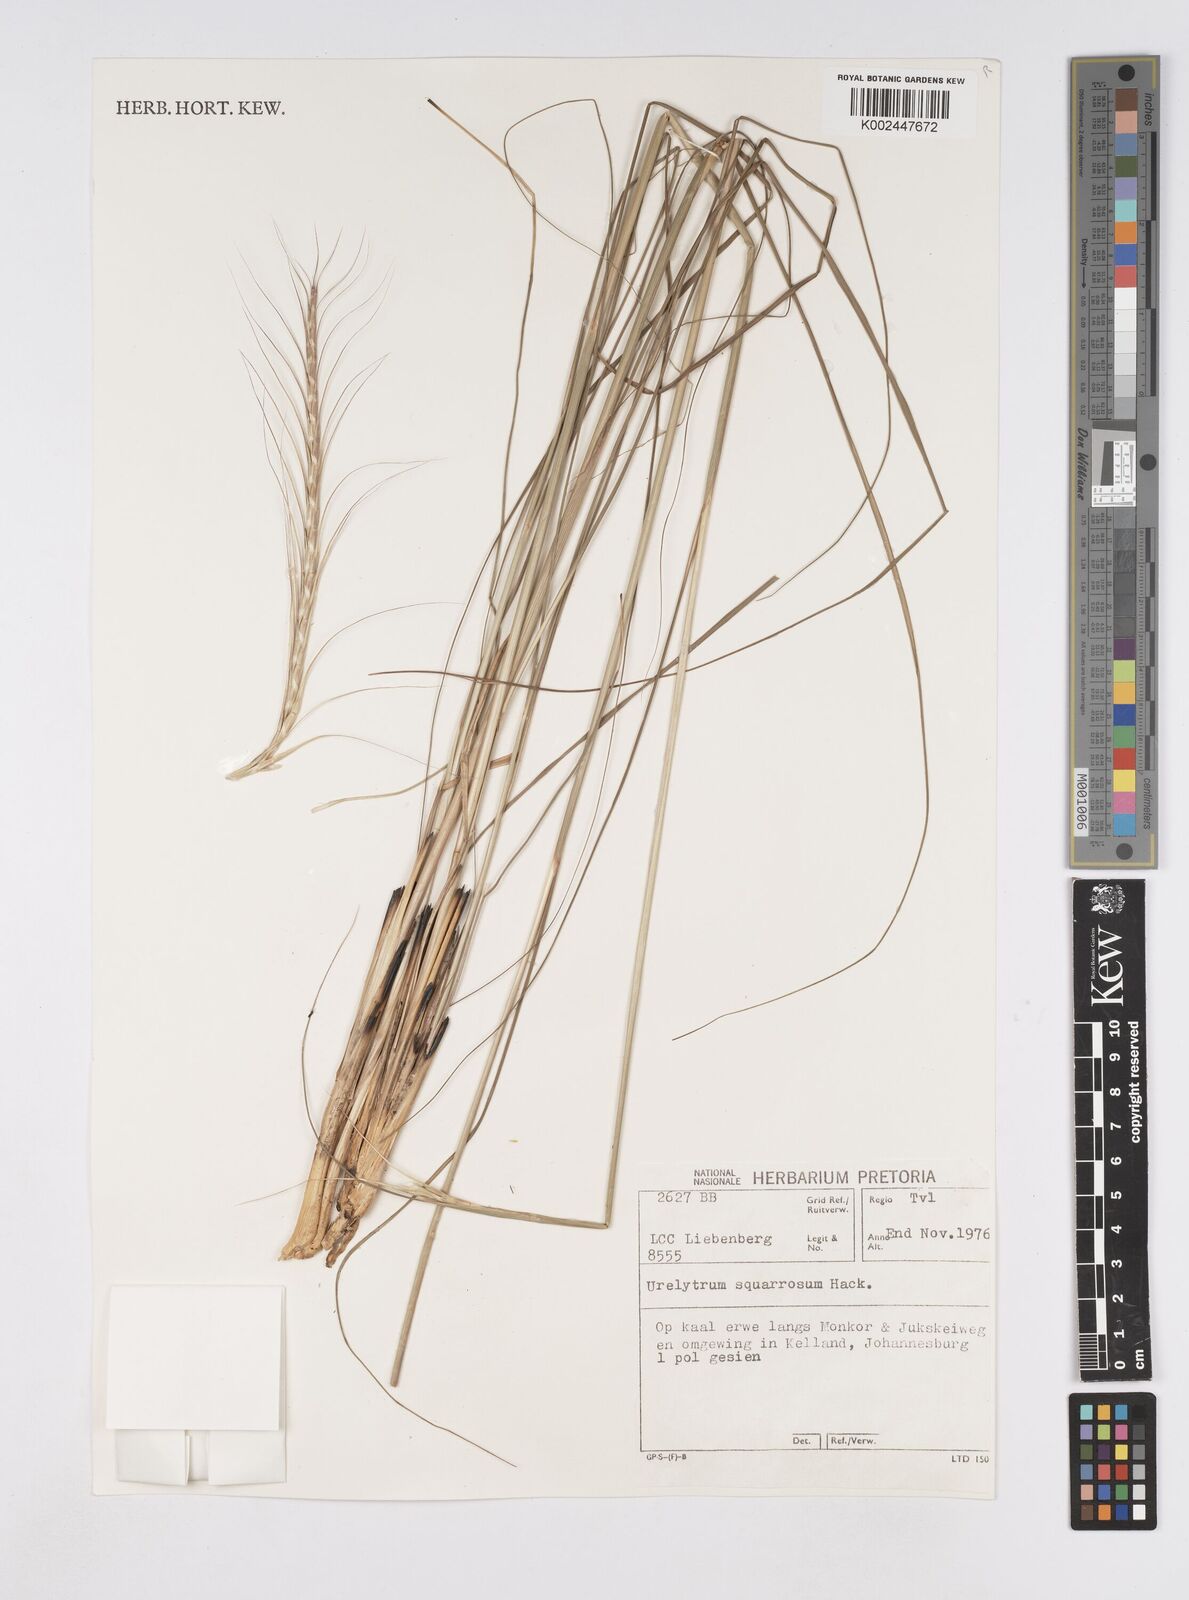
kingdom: Plantae
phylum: Tracheophyta
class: Liliopsida
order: Poales
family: Poaceae
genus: Urelytrum
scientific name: Urelytrum agropyroides
